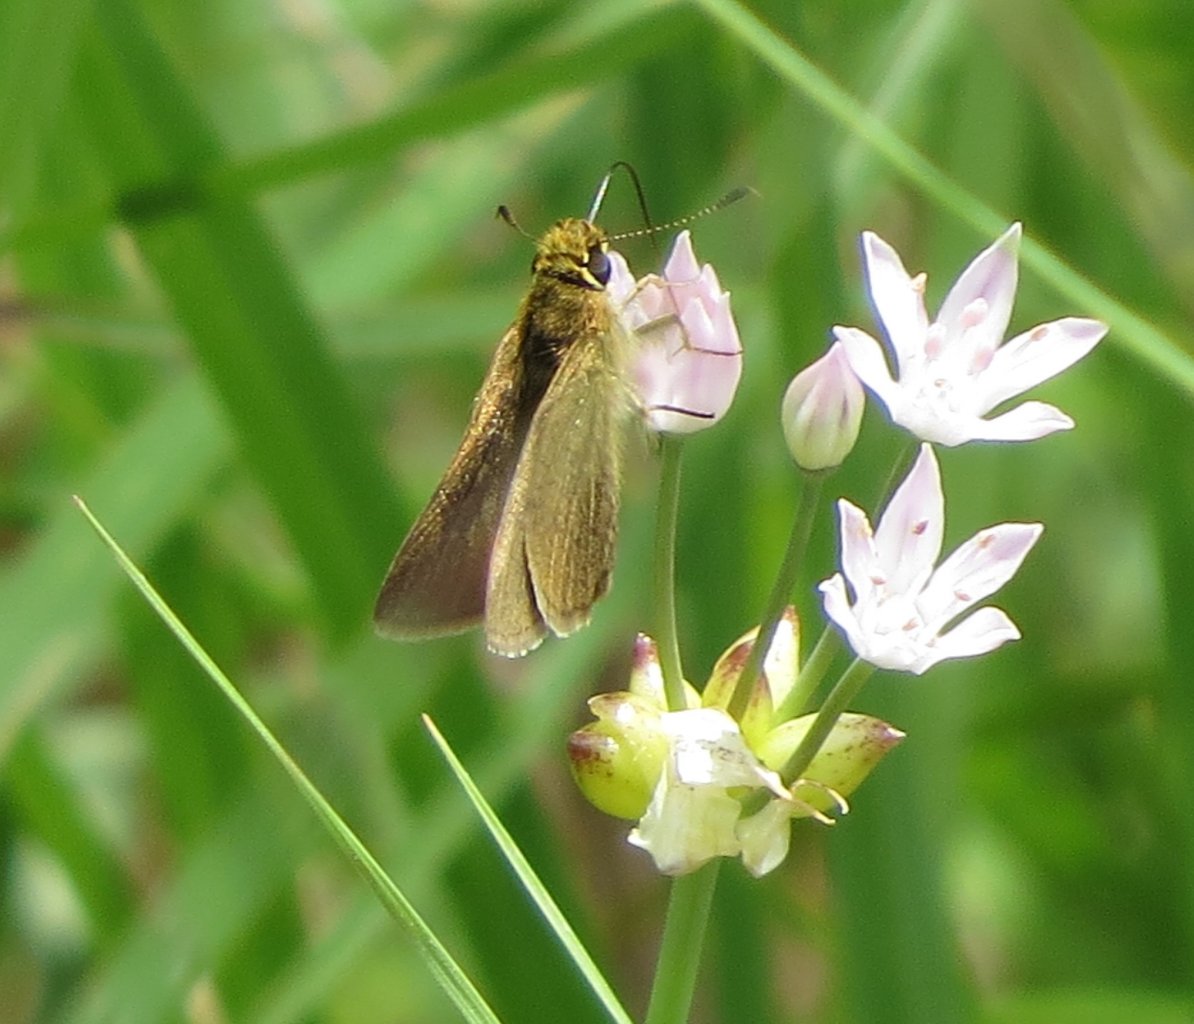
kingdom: Animalia
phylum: Arthropoda
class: Insecta
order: Lepidoptera
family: Hesperiidae
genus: Nastra
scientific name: Nastra lherminier
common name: Swarthy Skipper
